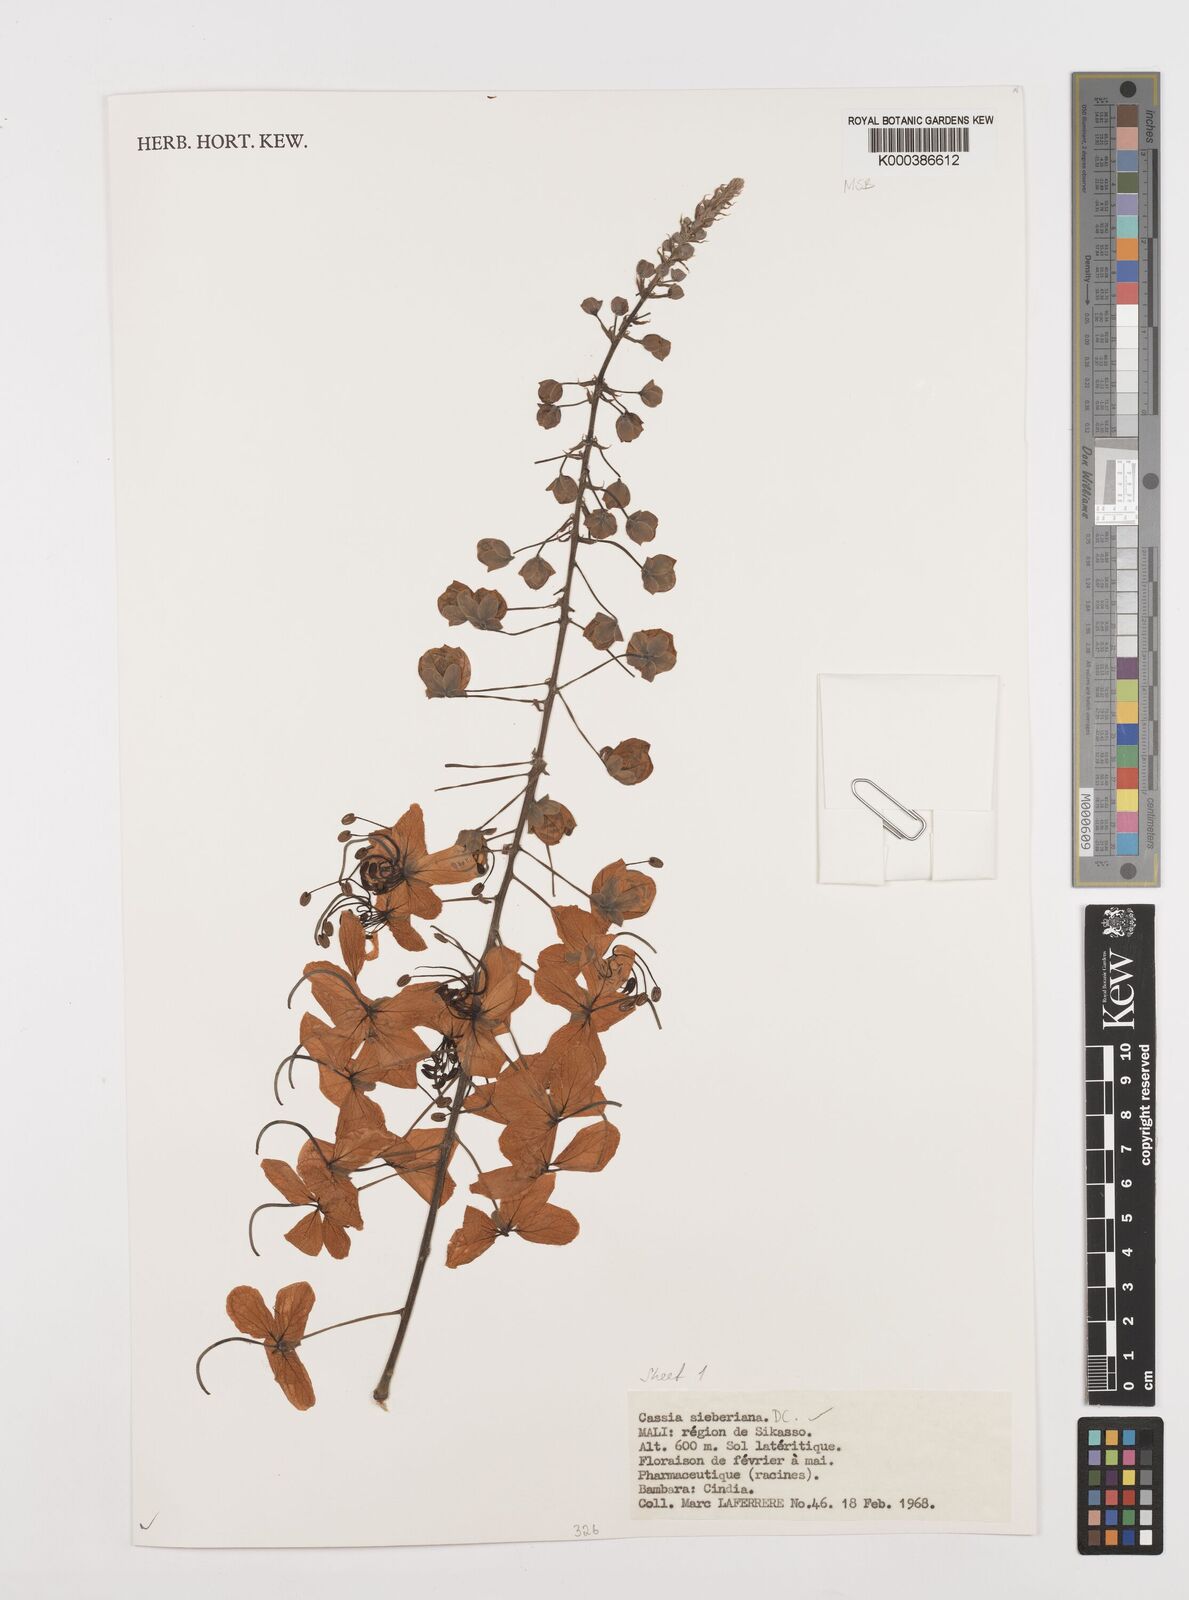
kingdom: Plantae
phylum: Tracheophyta
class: Magnoliopsida
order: Fabales
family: Fabaceae
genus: Cassia
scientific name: Cassia sieberiana
